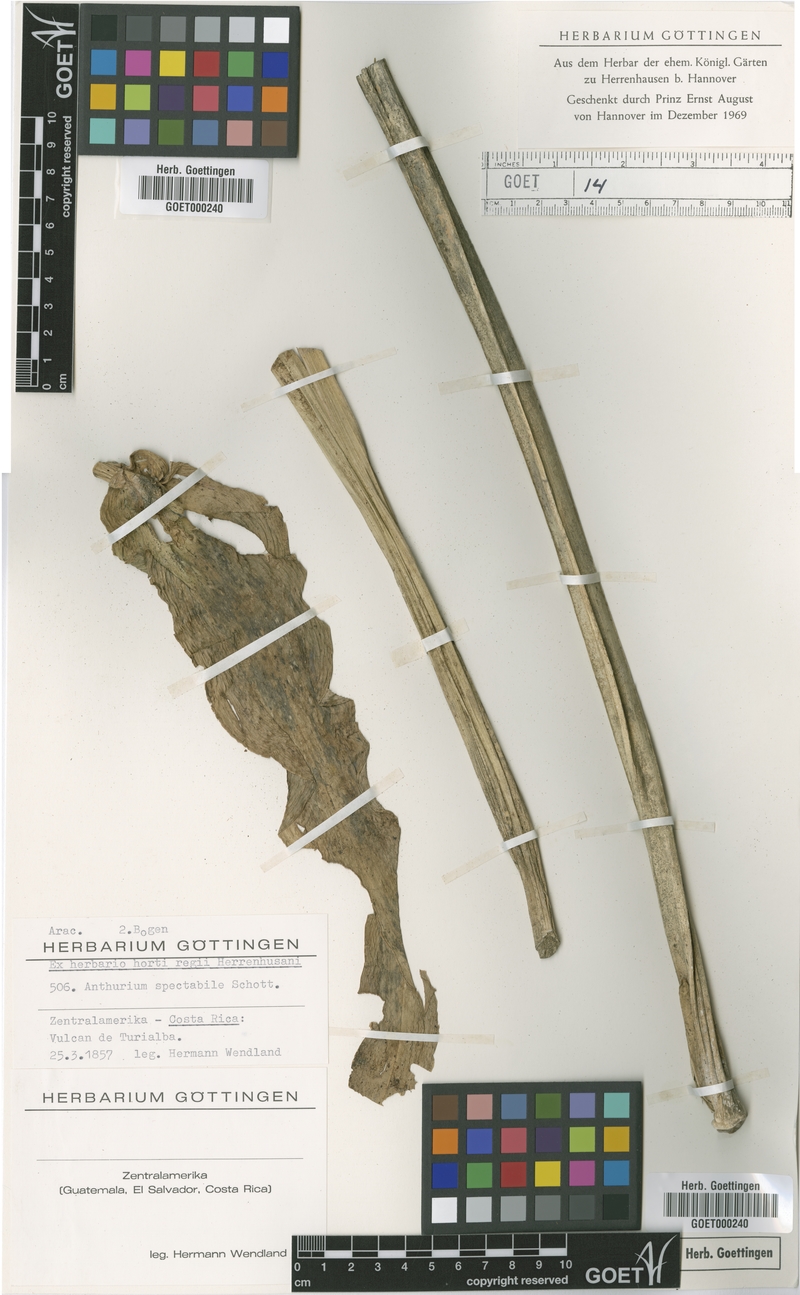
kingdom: Plantae
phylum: Tracheophyta
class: Liliopsida
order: Alismatales
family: Araceae
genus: Anthurium
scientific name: Anthurium spectabile
